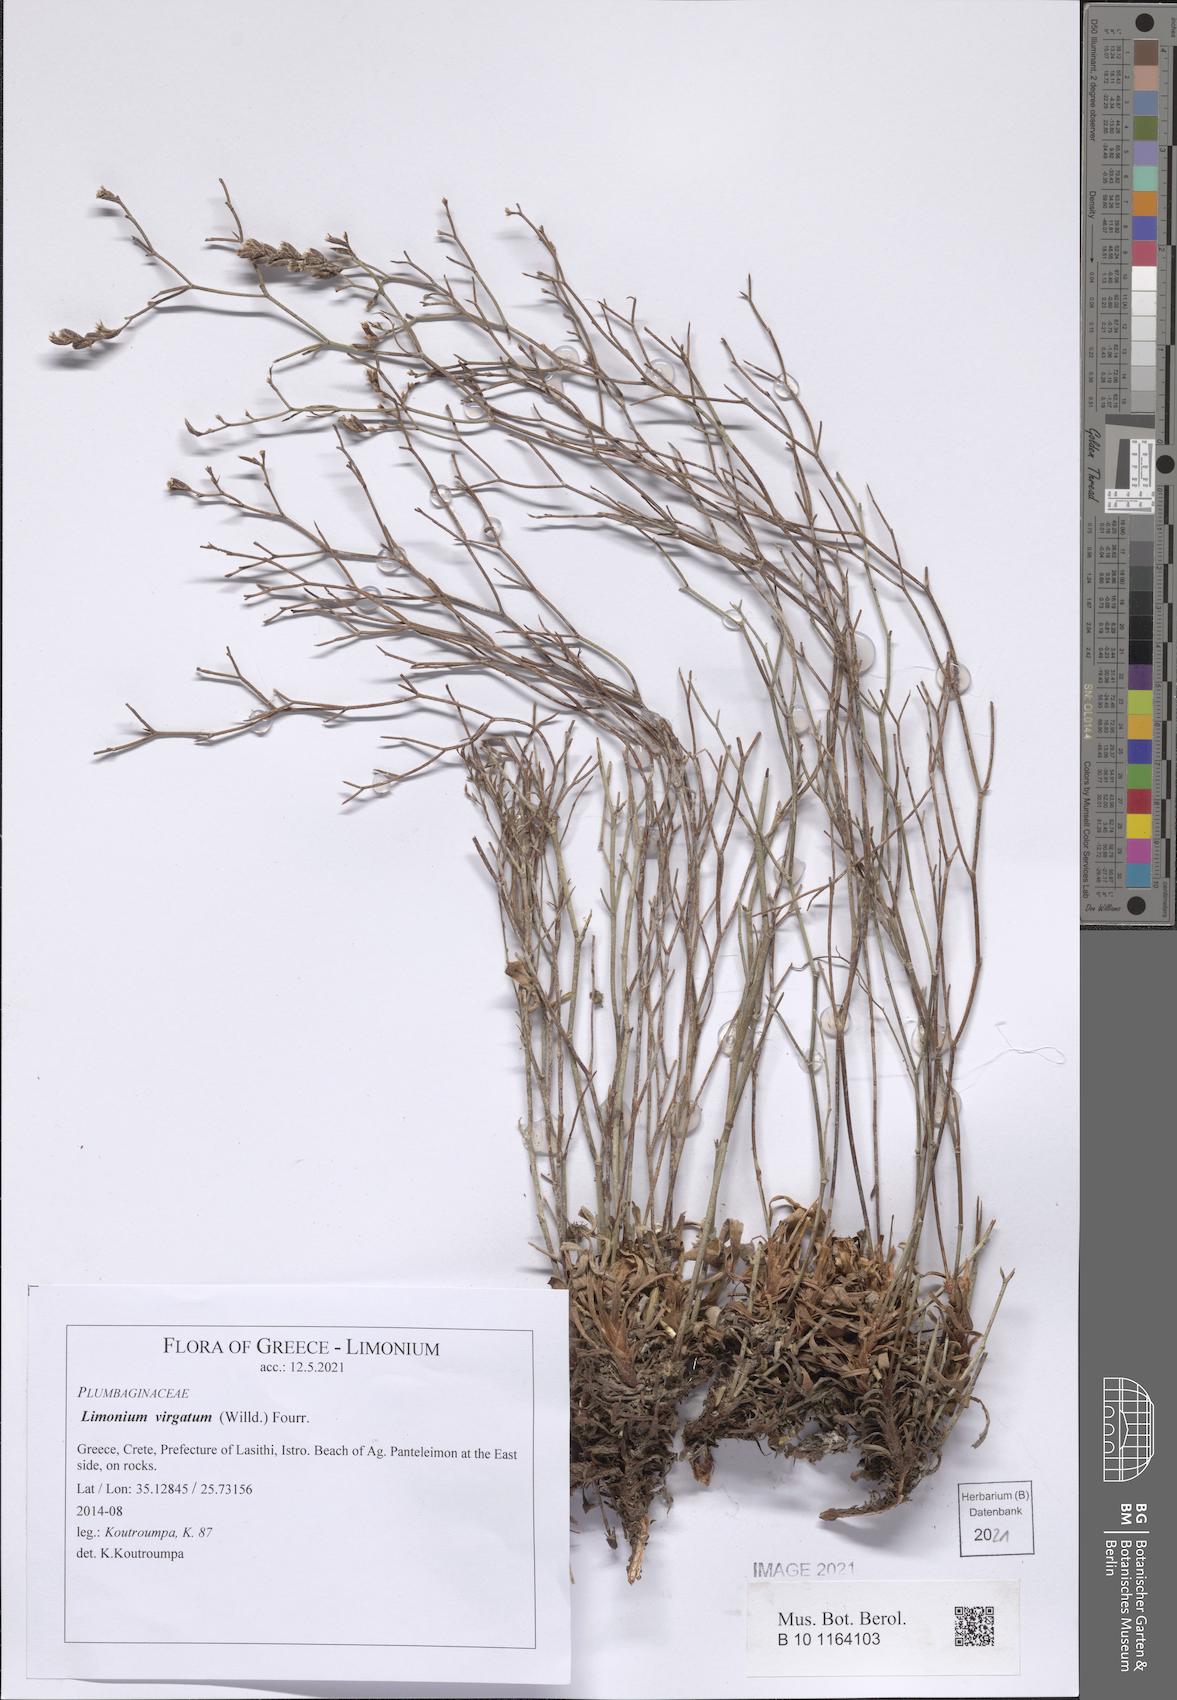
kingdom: Plantae
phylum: Tracheophyta
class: Magnoliopsida
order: Caryophyllales
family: Plumbaginaceae
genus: Limonium
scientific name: Limonium virgatum
